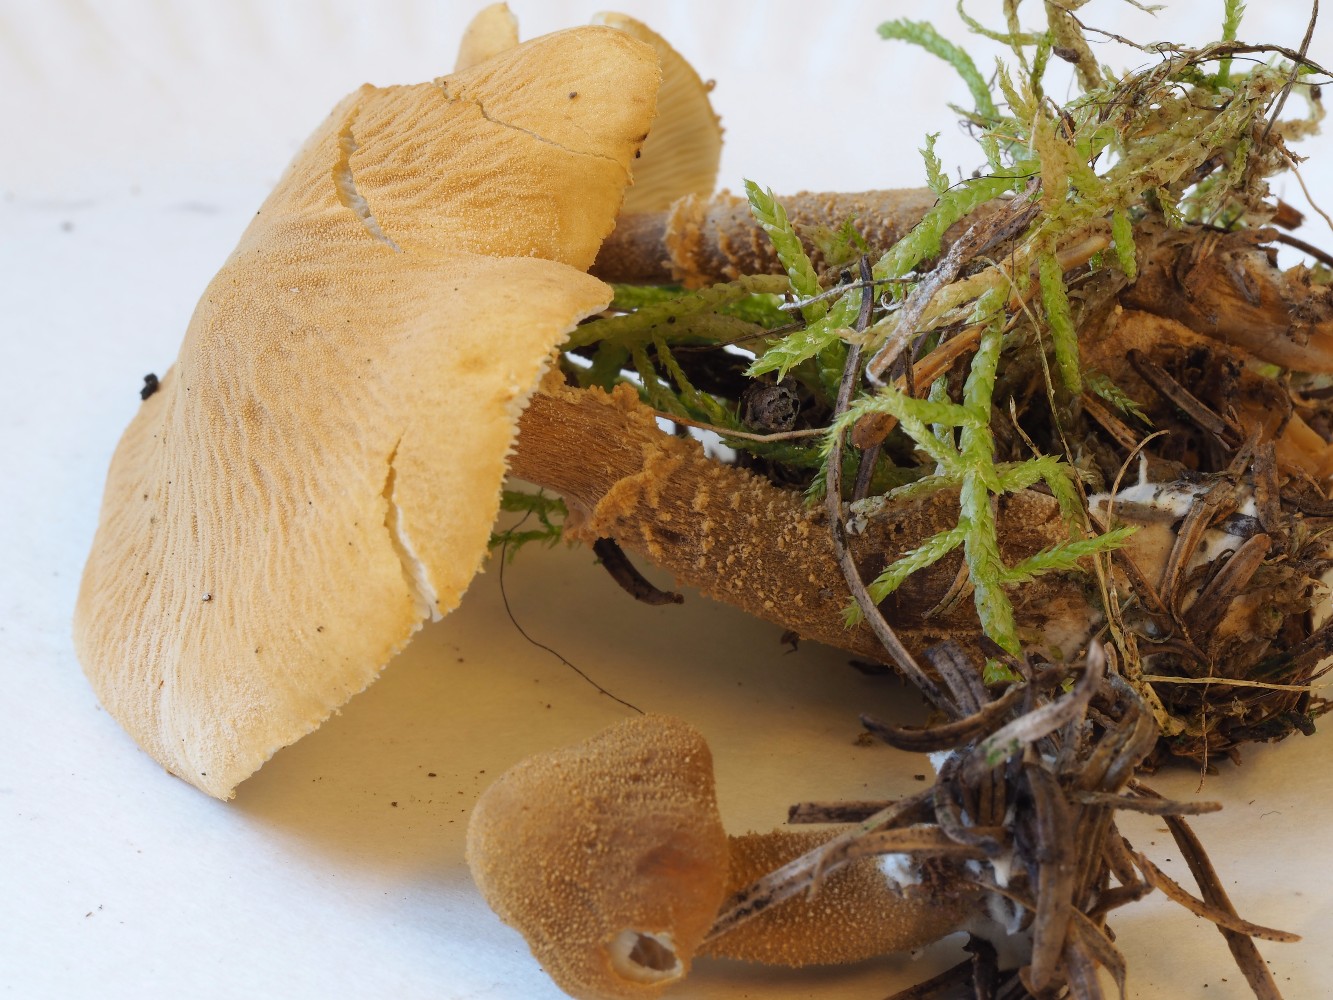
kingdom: Fungi
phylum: Basidiomycota
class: Agaricomycetes
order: Agaricales
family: Tricholomataceae
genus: Cystoderma
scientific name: Cystoderma amianthinum
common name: okkergul grynhat
